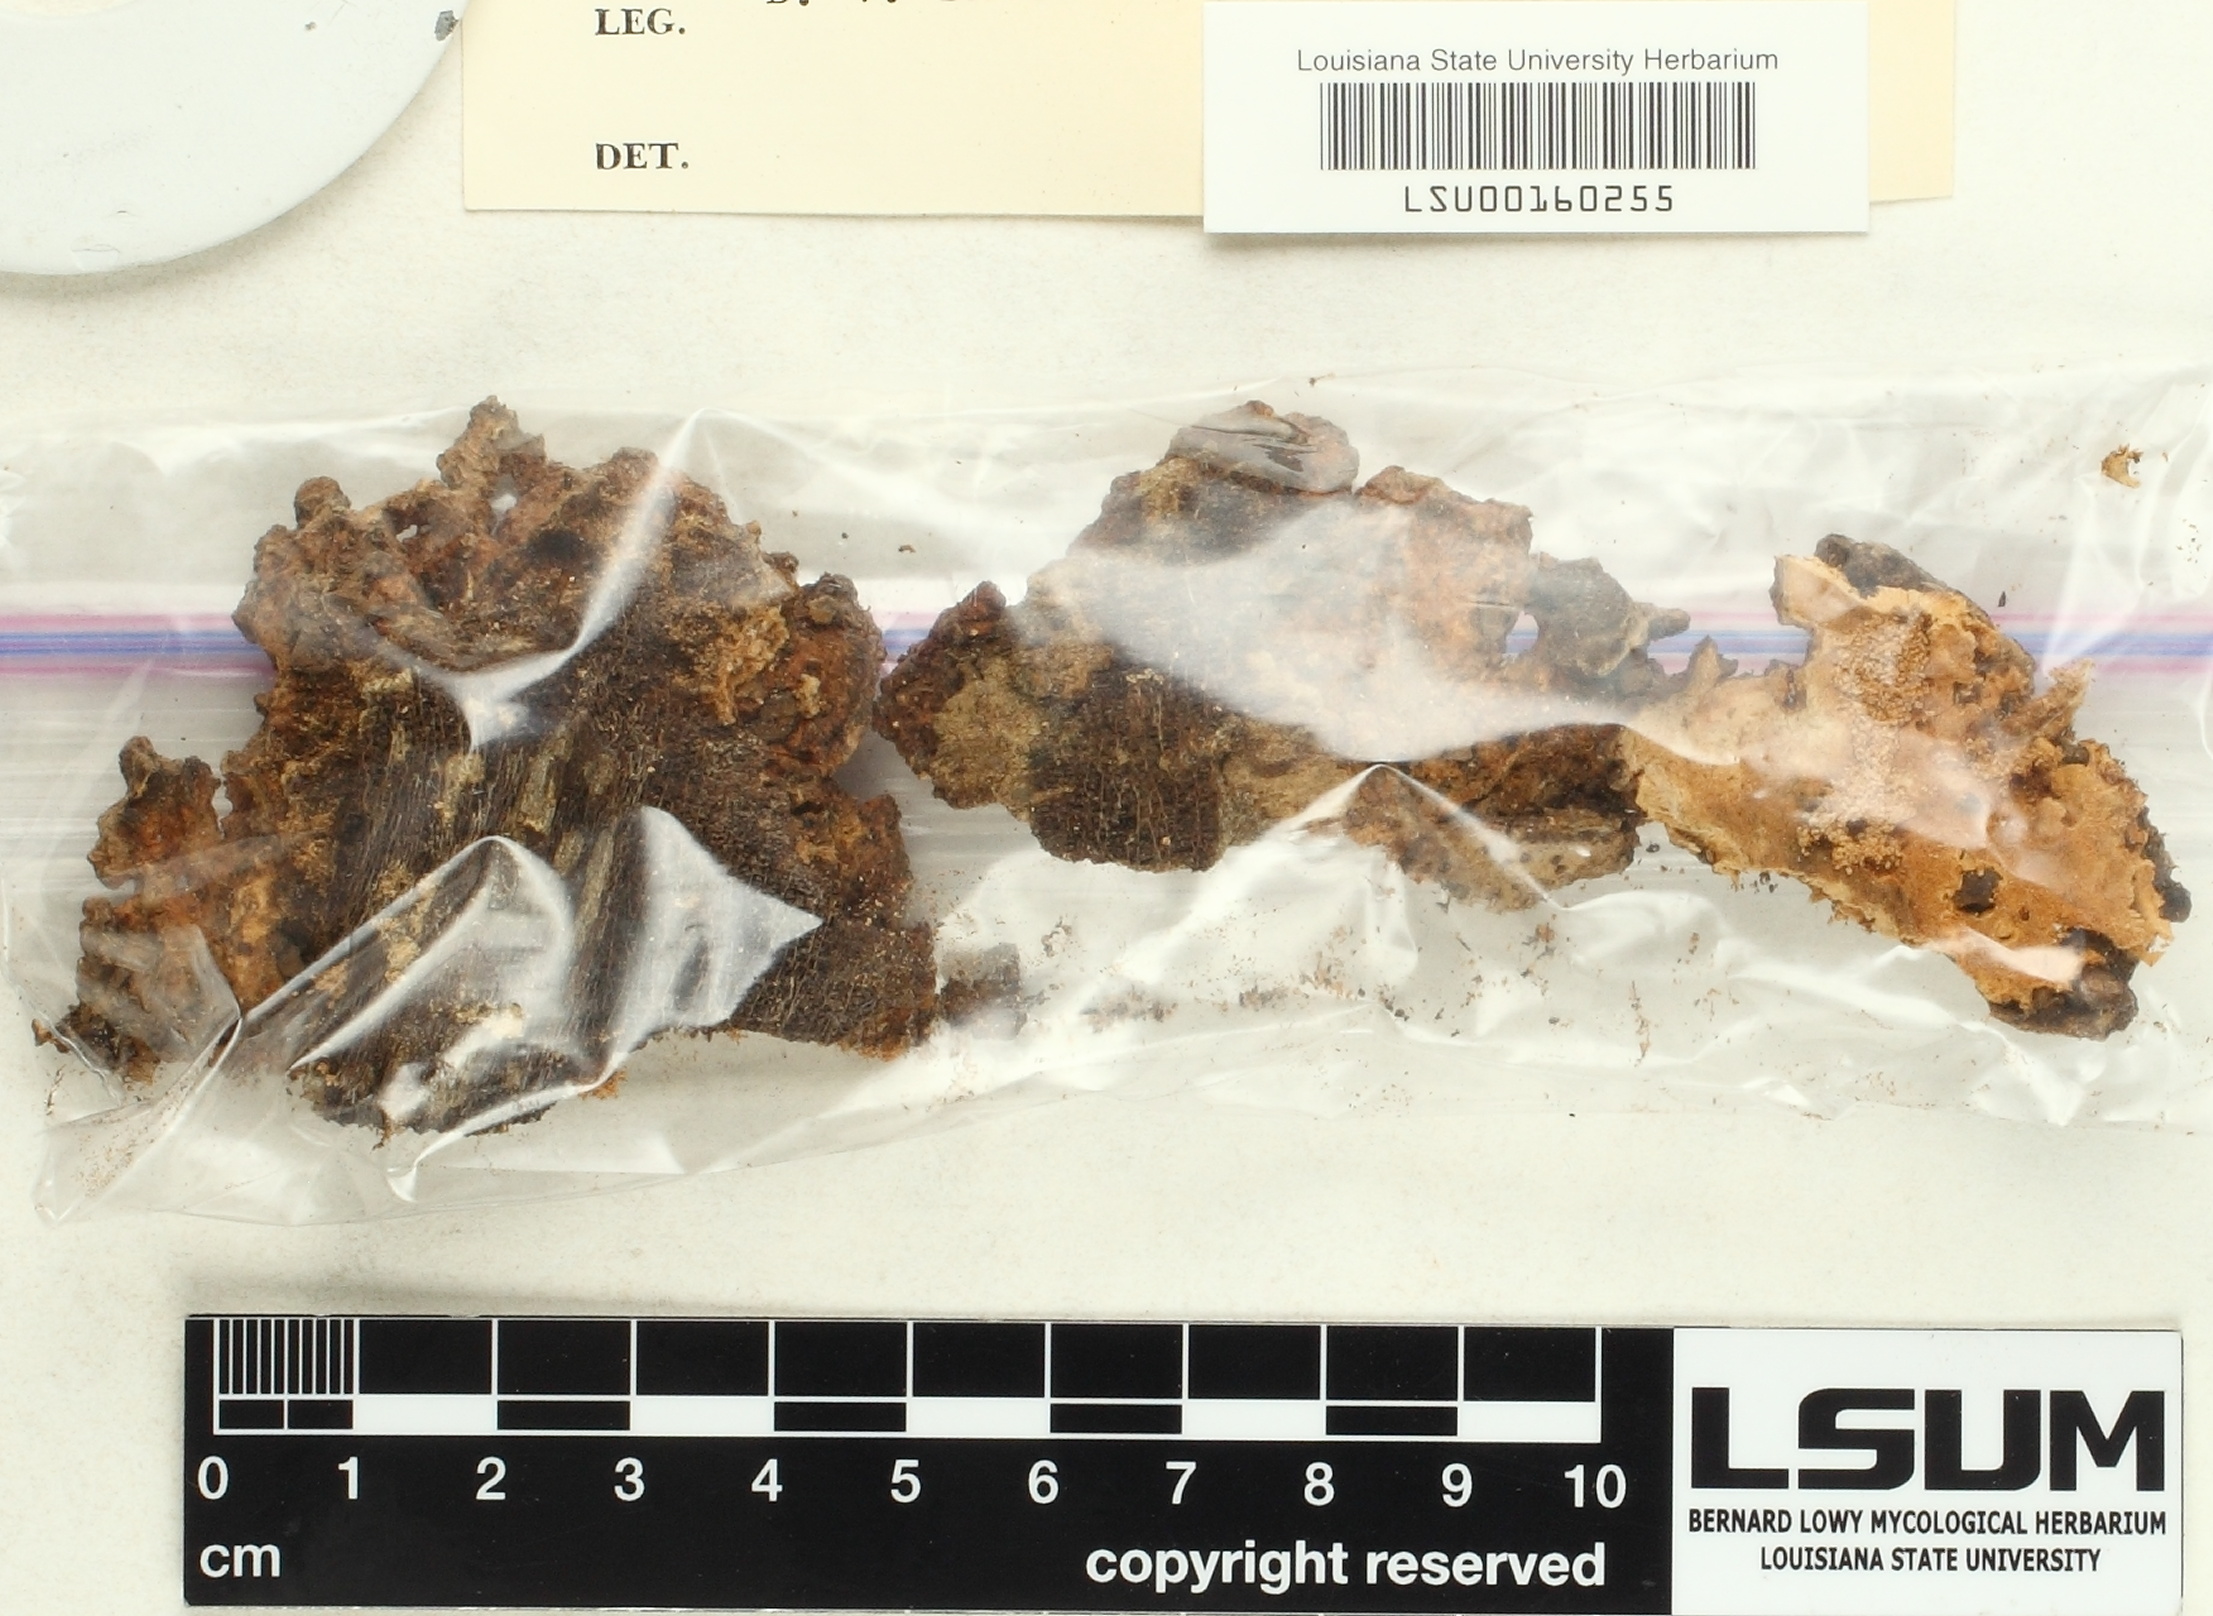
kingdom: Fungi
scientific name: Fungi
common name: Fungi
